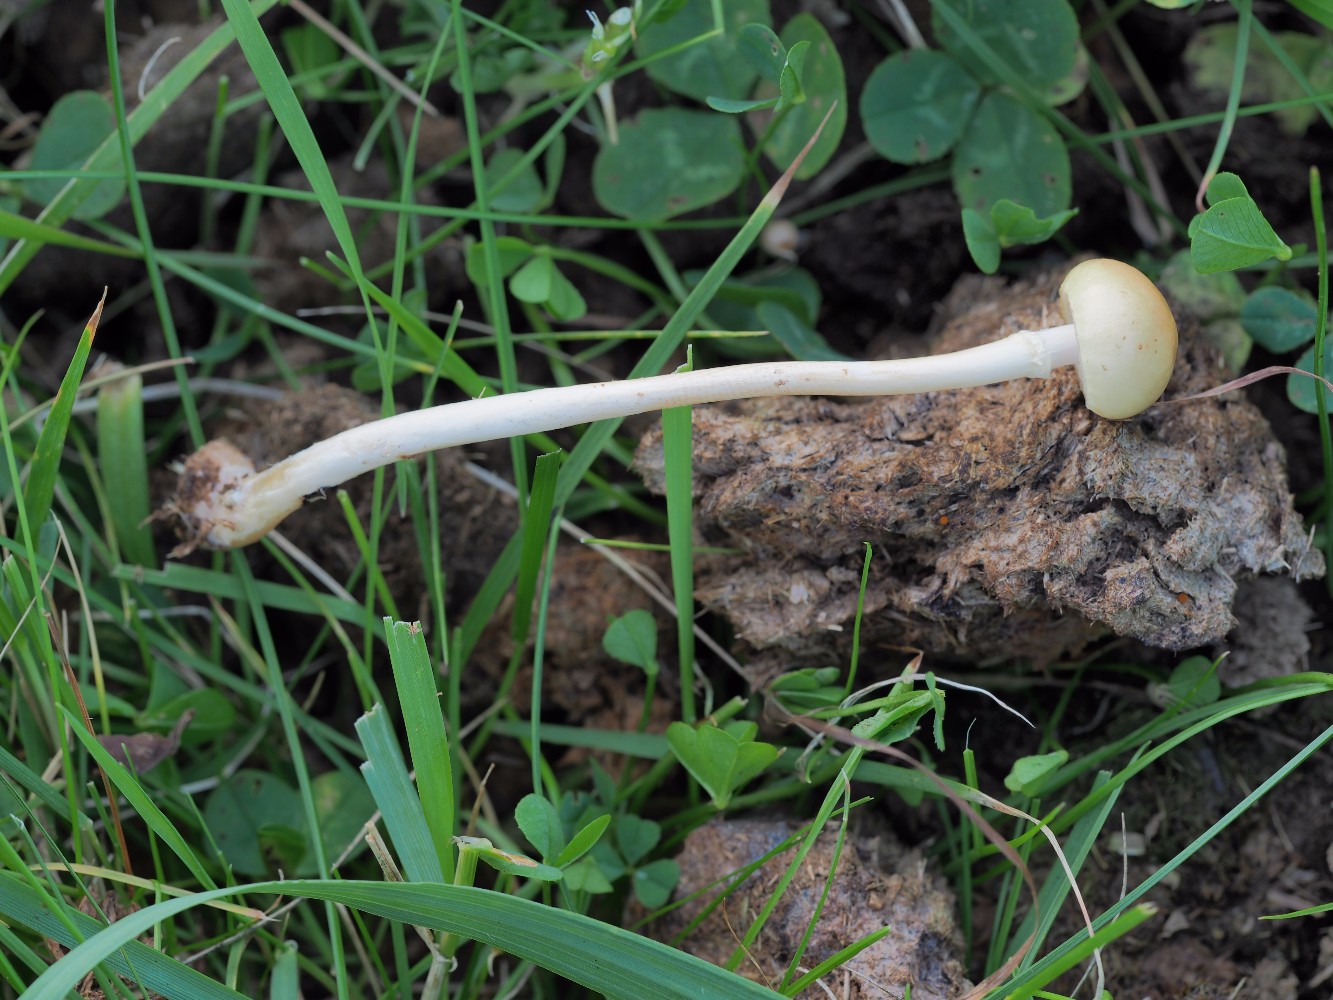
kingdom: Fungi
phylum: Basidiomycota
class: Agaricomycetes
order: Agaricales
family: Strophariaceae
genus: Protostropharia
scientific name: Protostropharia semiglobata
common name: halvkugleformet bredblad
